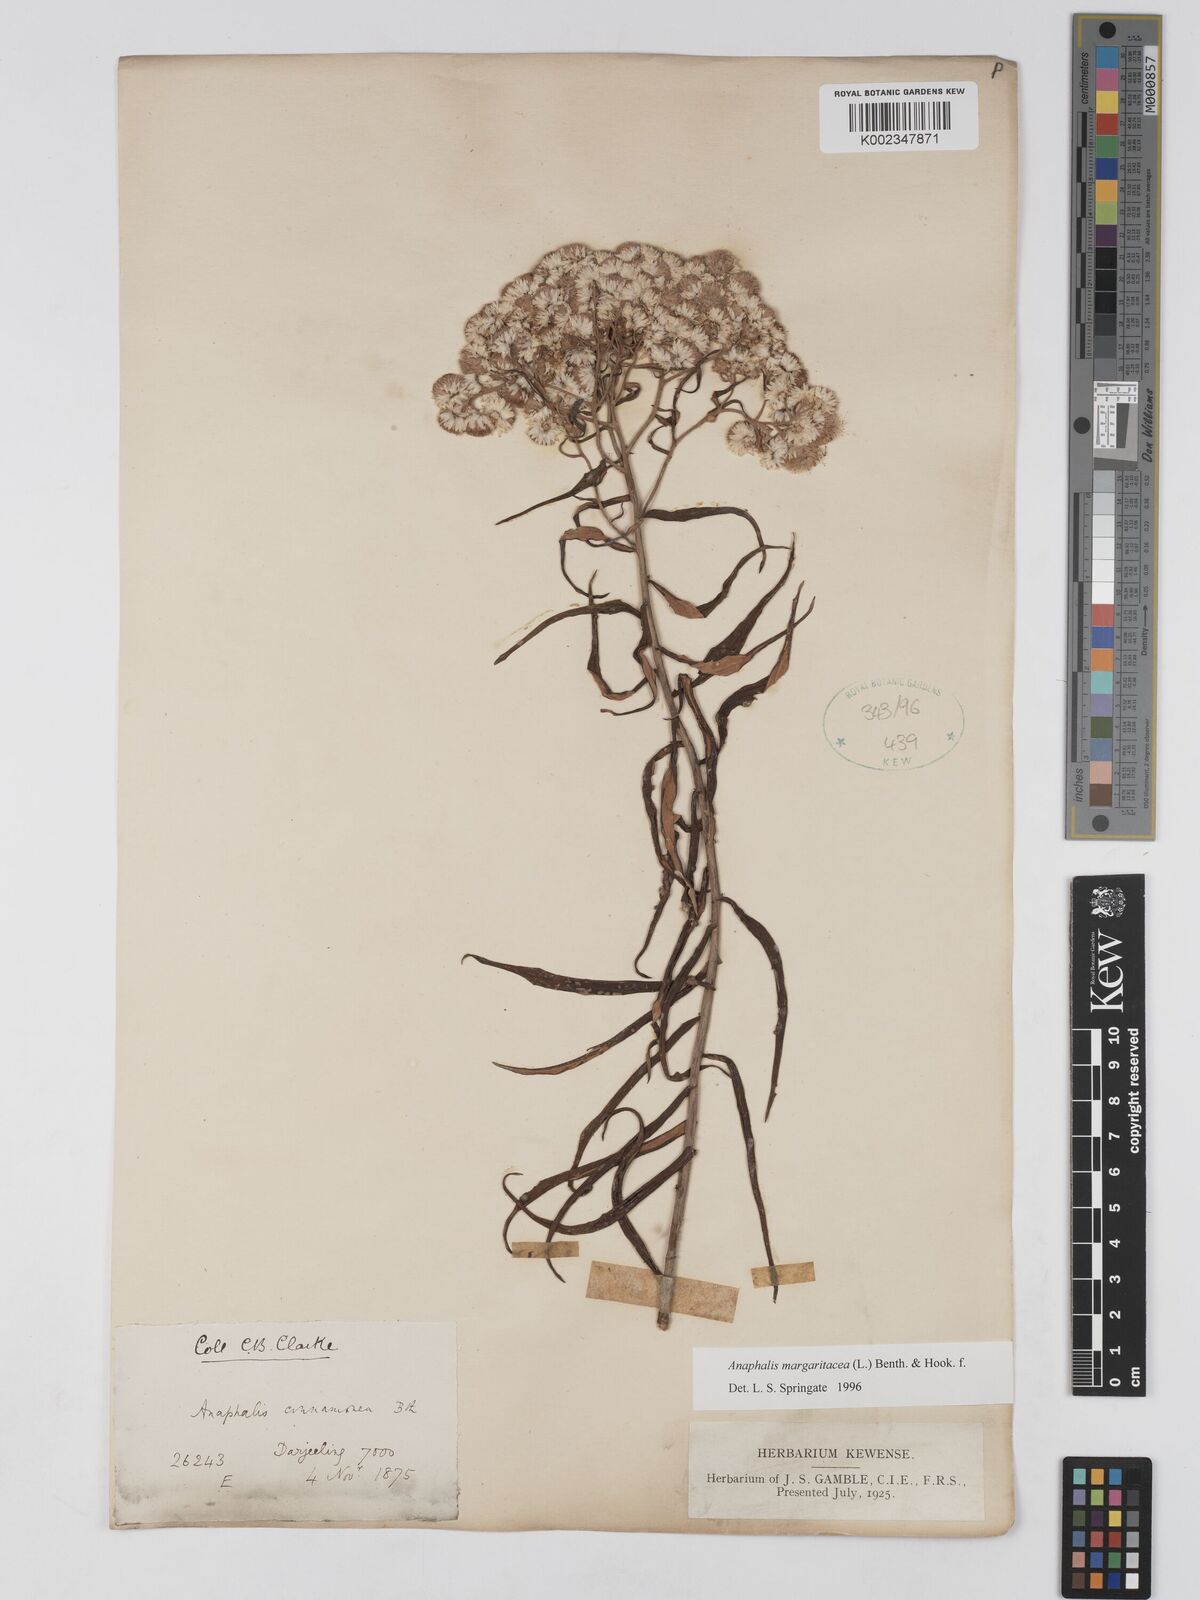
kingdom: Plantae
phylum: Tracheophyta
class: Magnoliopsida
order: Asterales
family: Asteraceae
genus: Anaphalis
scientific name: Anaphalis margaritacea
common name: Pearly everlasting
